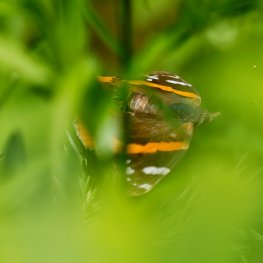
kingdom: Animalia
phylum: Arthropoda
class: Insecta
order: Lepidoptera
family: Nymphalidae
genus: Vanessa
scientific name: Vanessa atalanta
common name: Red Admiral
